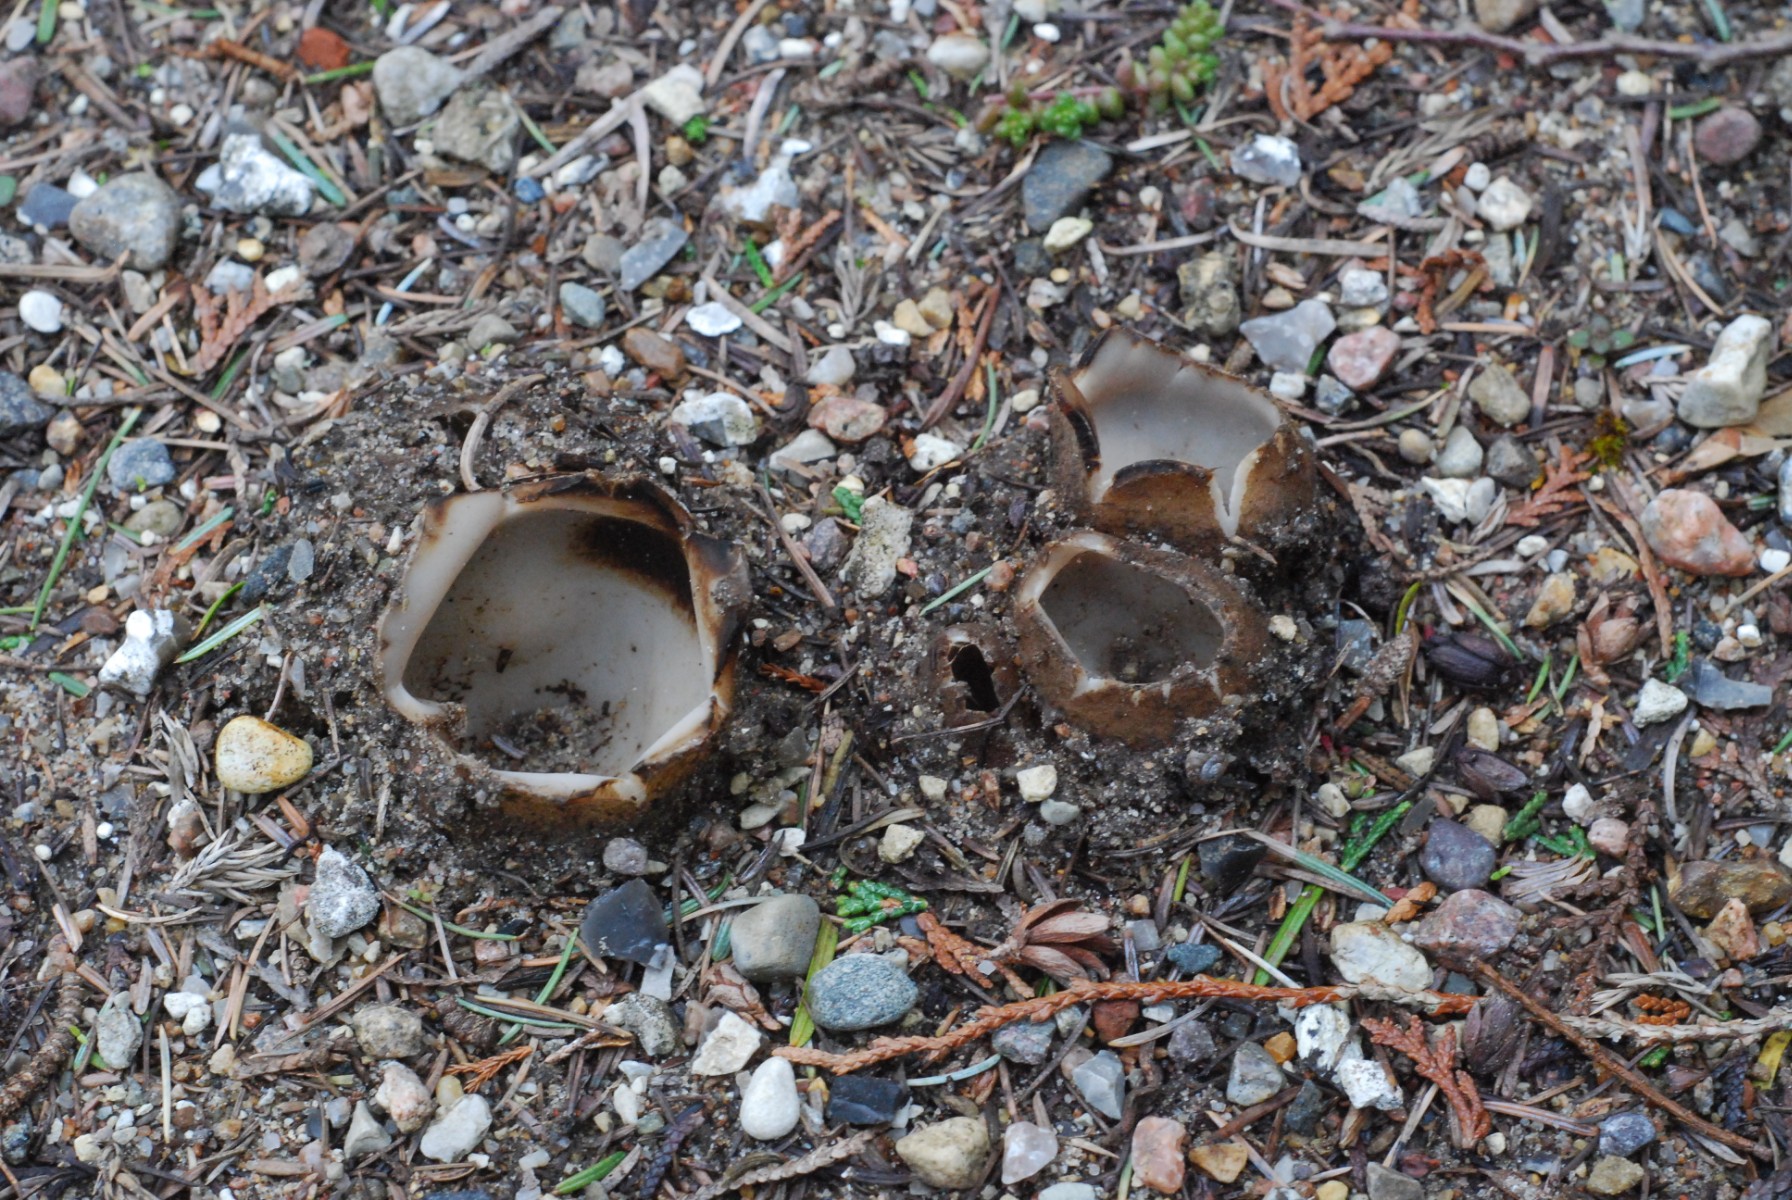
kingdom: Fungi
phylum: Ascomycota
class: Pezizomycetes
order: Pezizales
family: Pyronemataceae
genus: Geopora
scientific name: Geopora sumneriana
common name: vår-jordbæger
